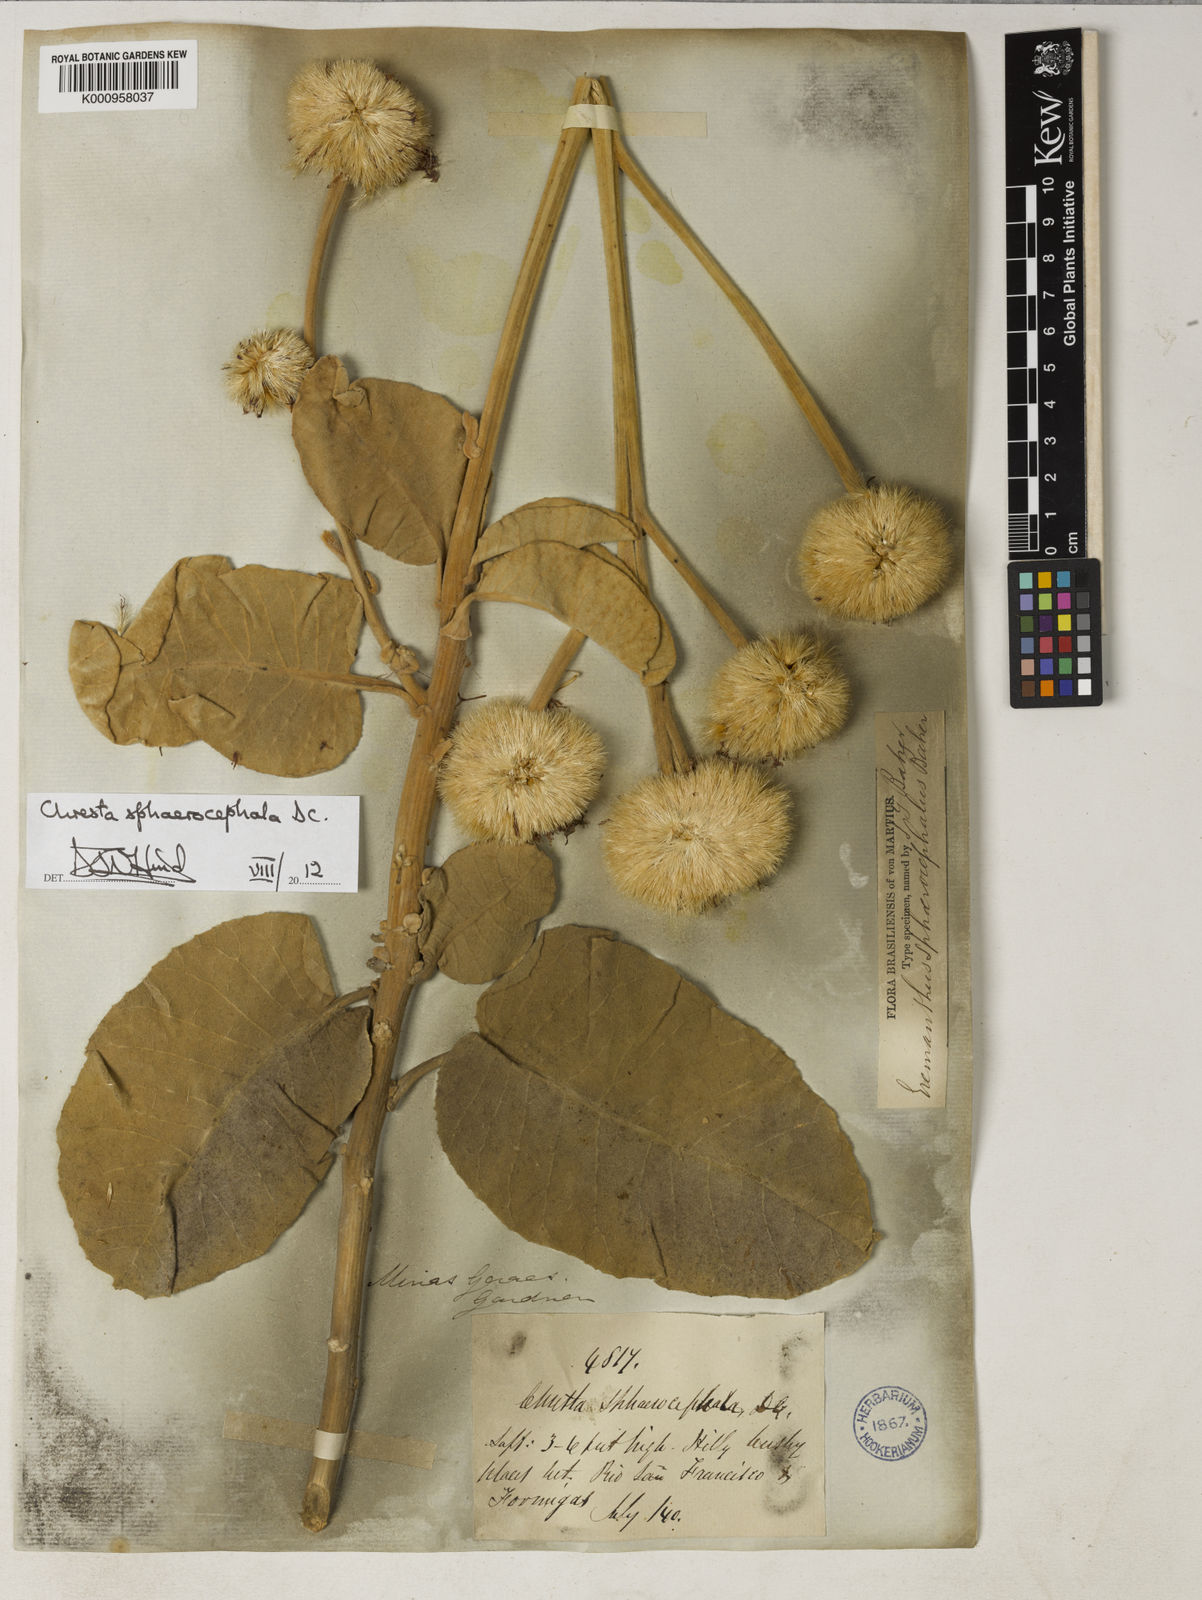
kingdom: Plantae
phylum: Tracheophyta
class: Magnoliopsida
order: Asterales
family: Asteraceae
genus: Chresta
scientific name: Chresta sphaerocephala
